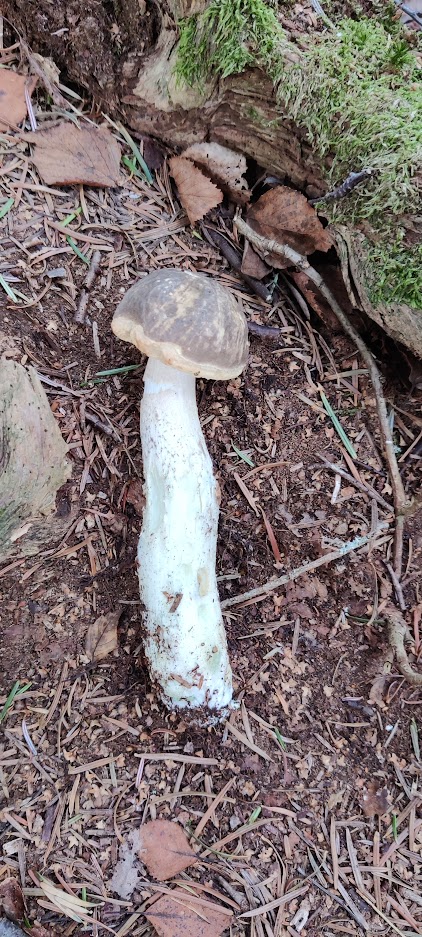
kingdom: Fungi
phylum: Basidiomycota
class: Agaricomycetes
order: Boletales
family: Boletaceae
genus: Leccinum
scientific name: Leccinum variicolor
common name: flammet skælrørhat
